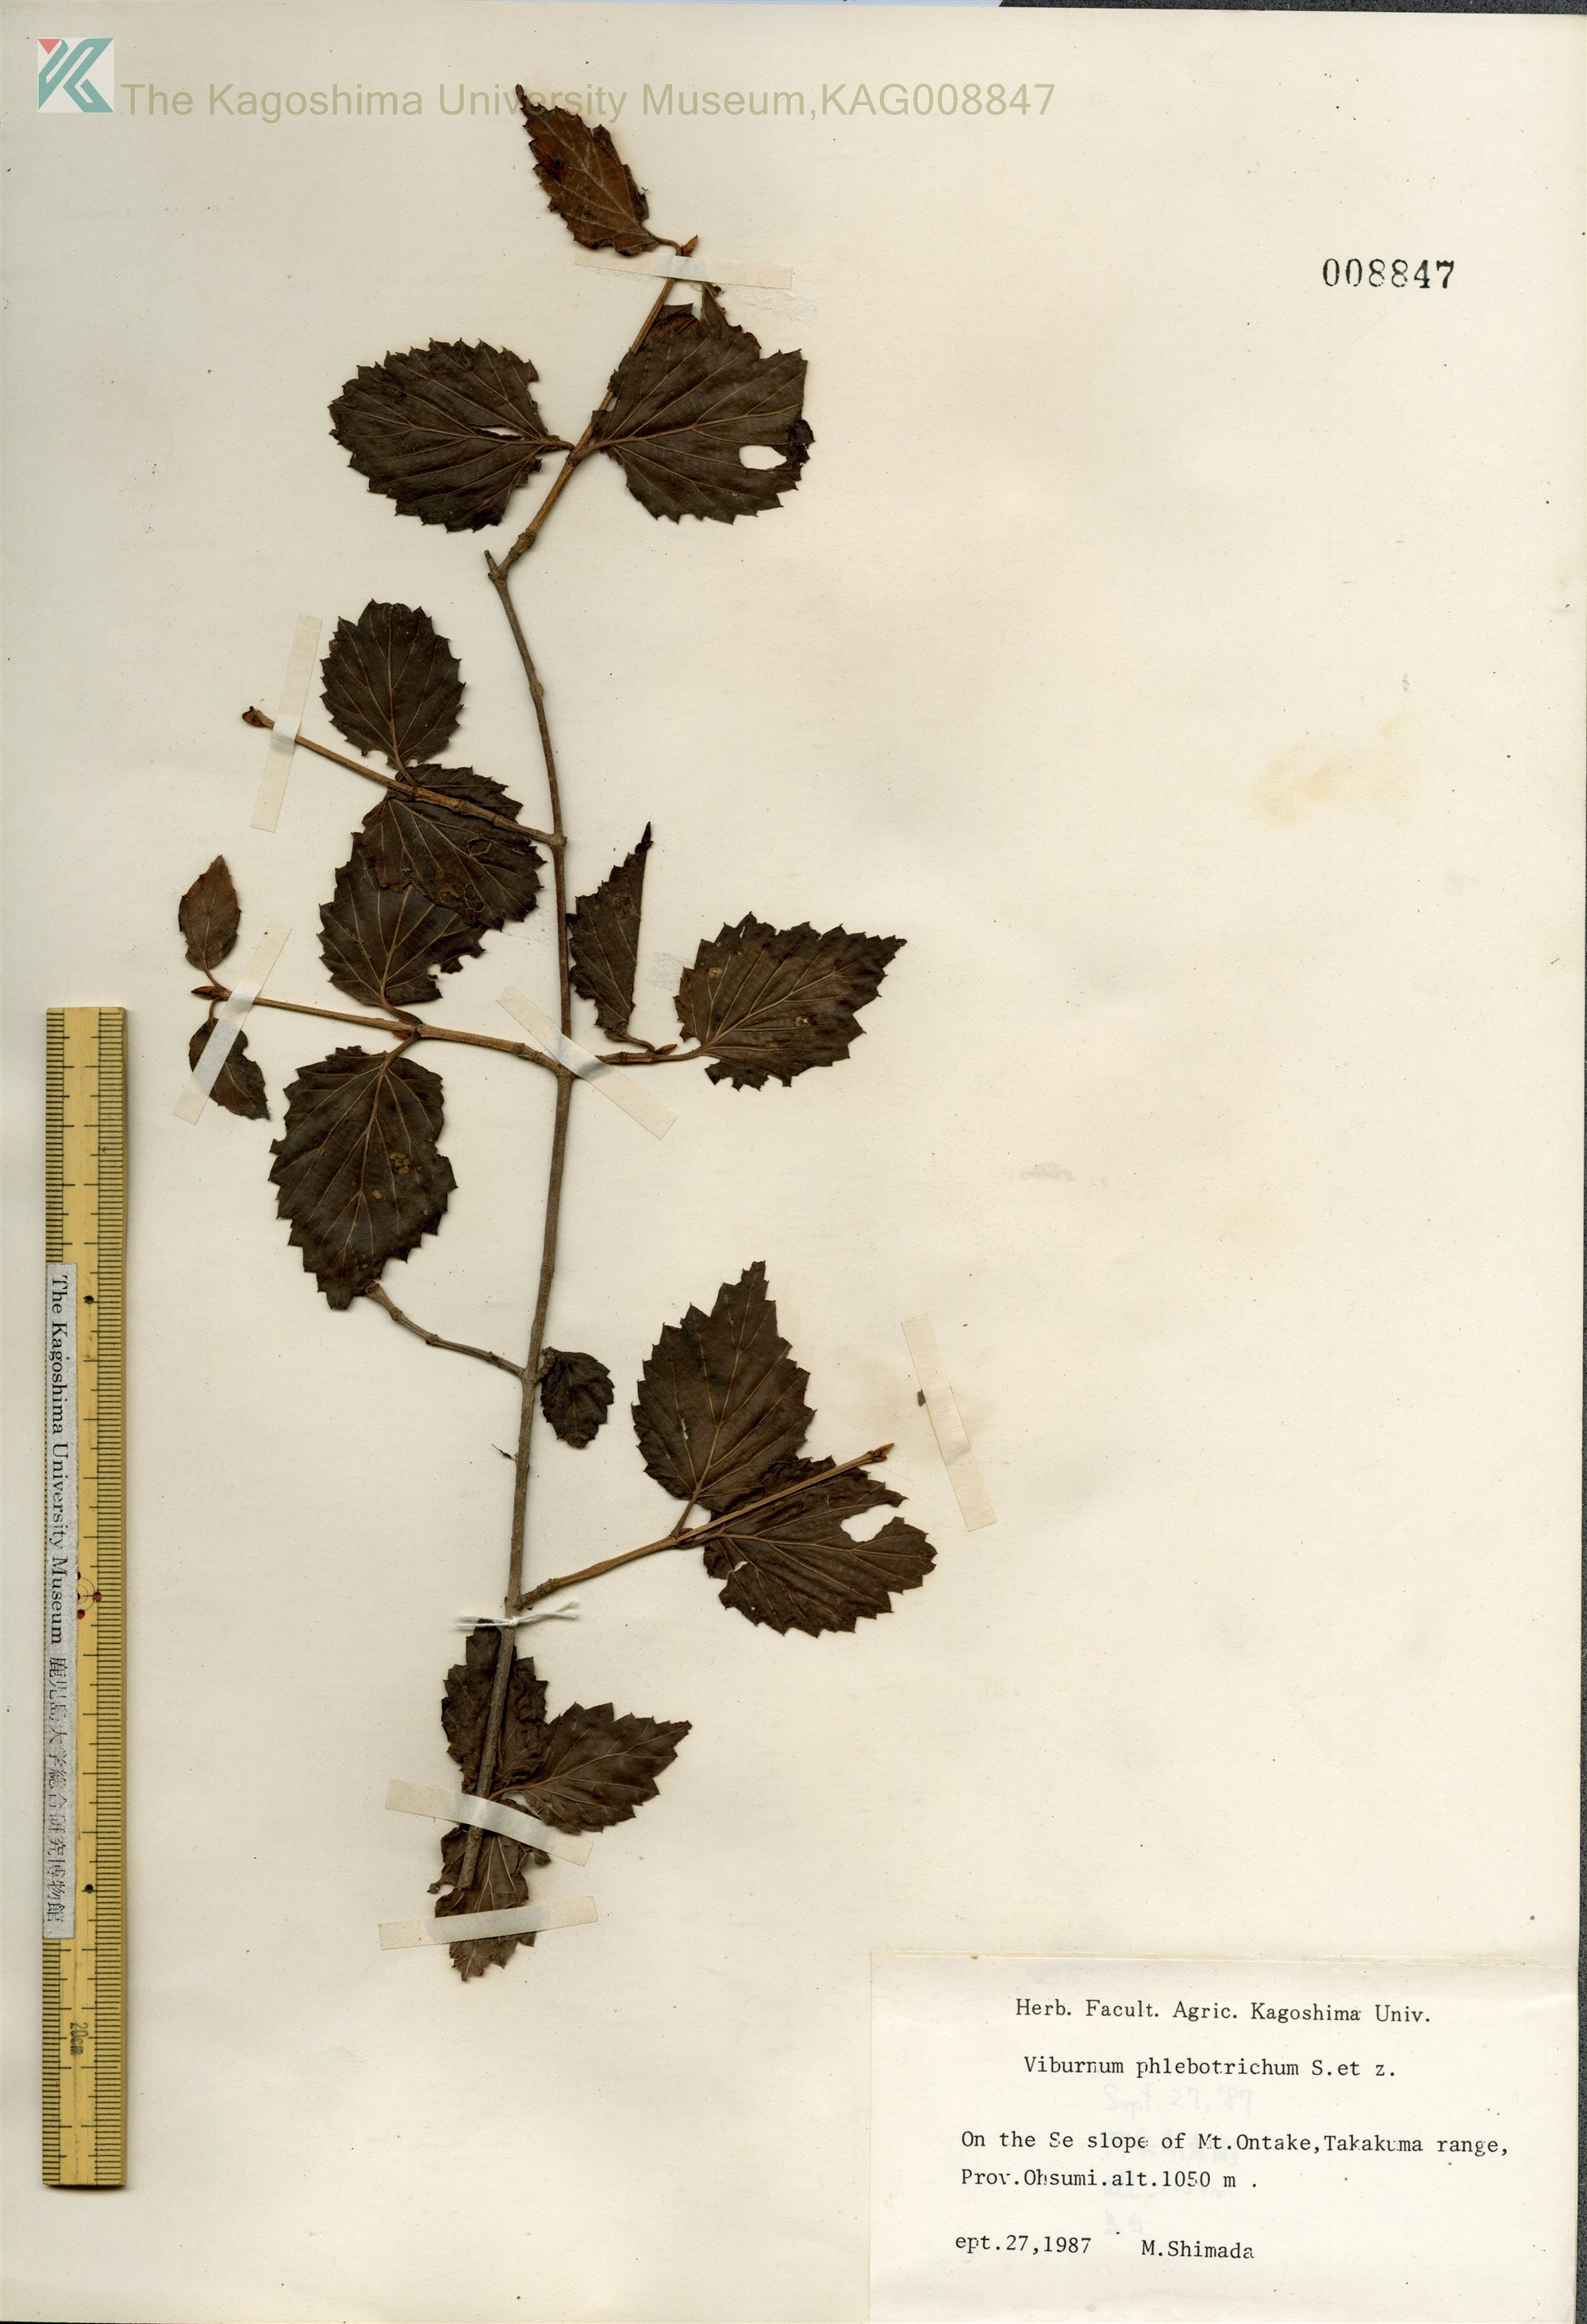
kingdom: Plantae
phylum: Tracheophyta
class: Magnoliopsida
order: Dipsacales
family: Viburnaceae
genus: Viburnum
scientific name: Viburnum phlebotrichum
